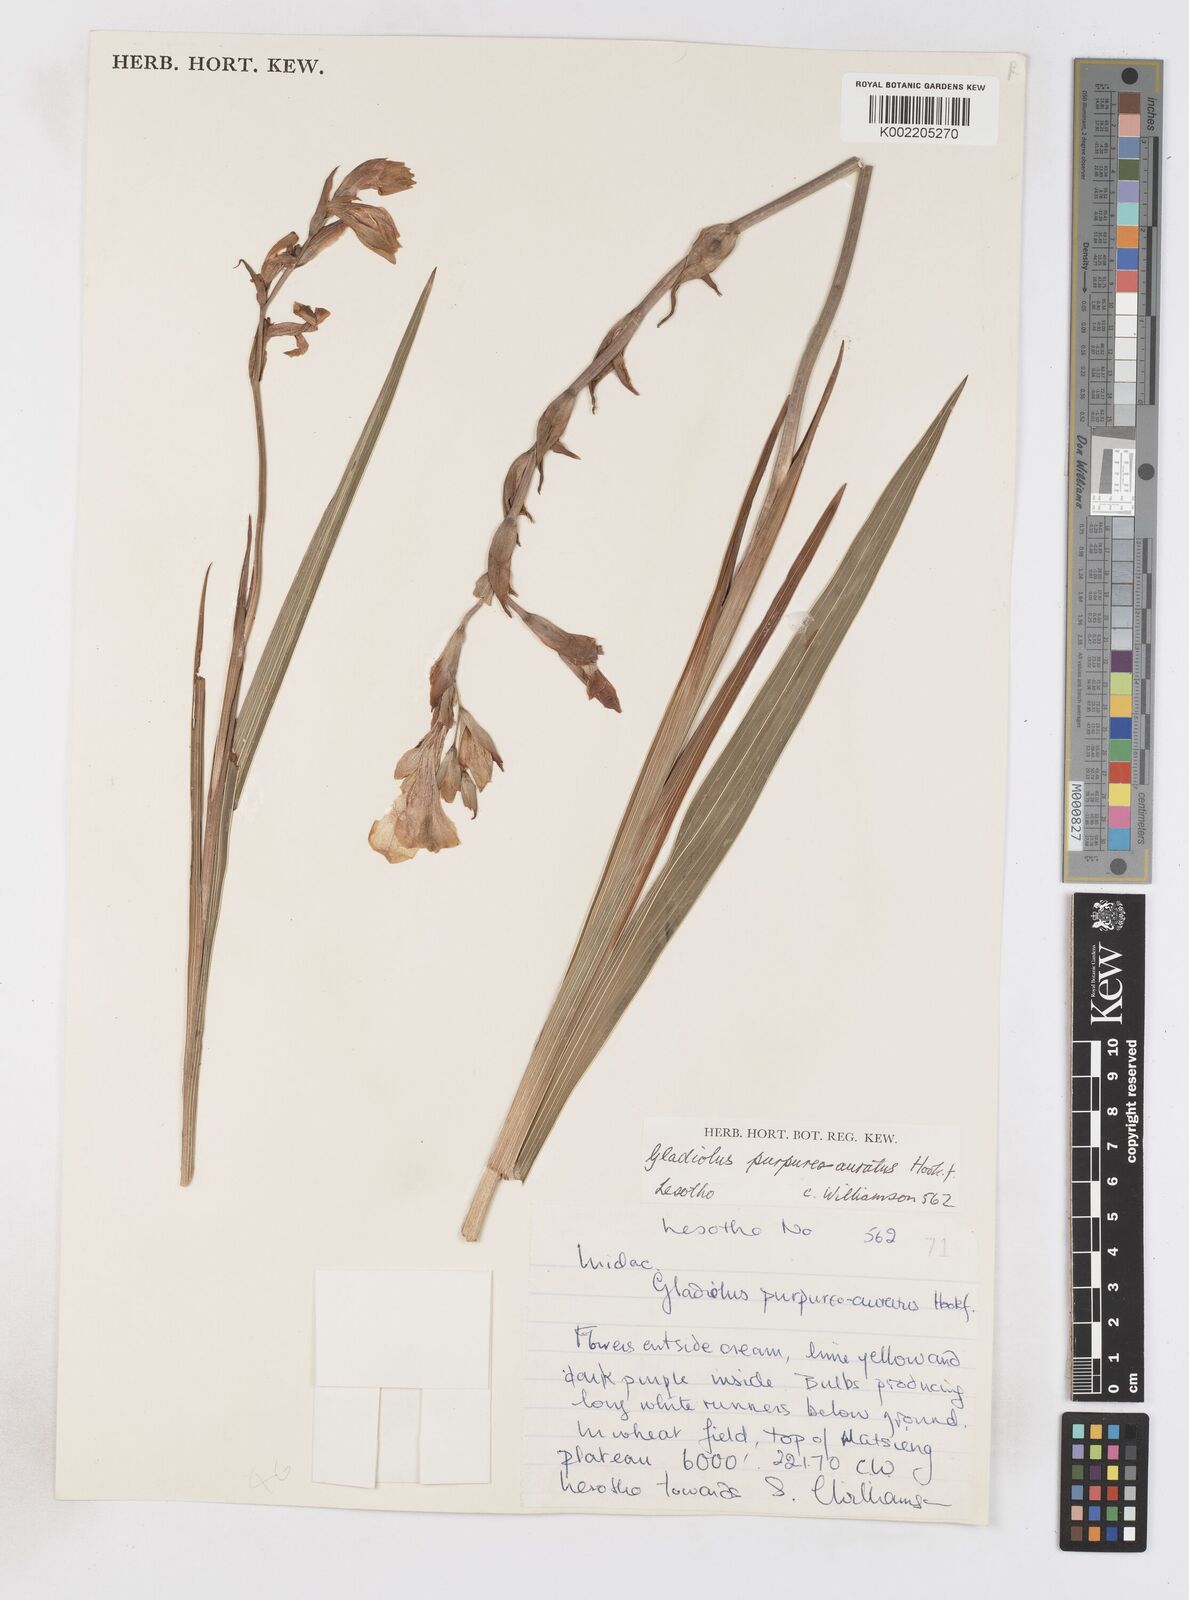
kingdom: Plantae
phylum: Tracheophyta
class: Liliopsida
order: Asparagales
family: Iridaceae
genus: Gladiolus
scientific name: Gladiolus papilio
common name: Goldblotch gladiolus
